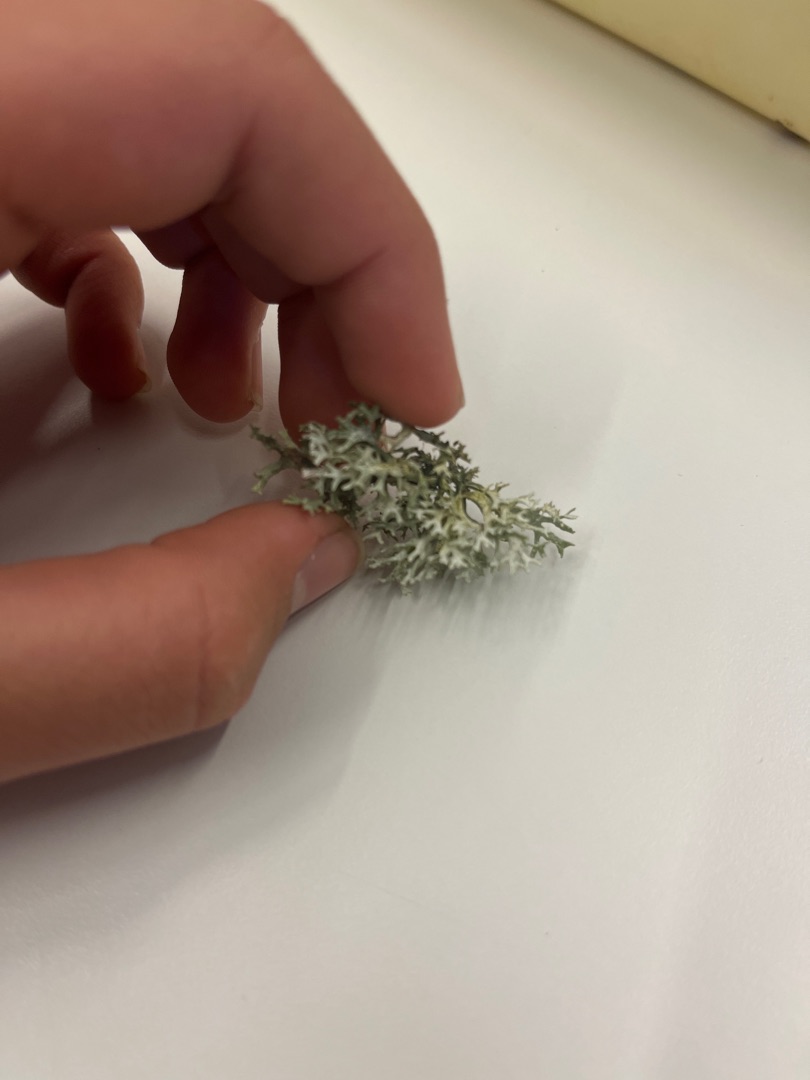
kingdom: Fungi
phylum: Ascomycota
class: Lecanoromycetes
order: Lecanorales
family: Parmeliaceae
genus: Evernia
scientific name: Evernia prunastri
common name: Almindelig slåenlav
